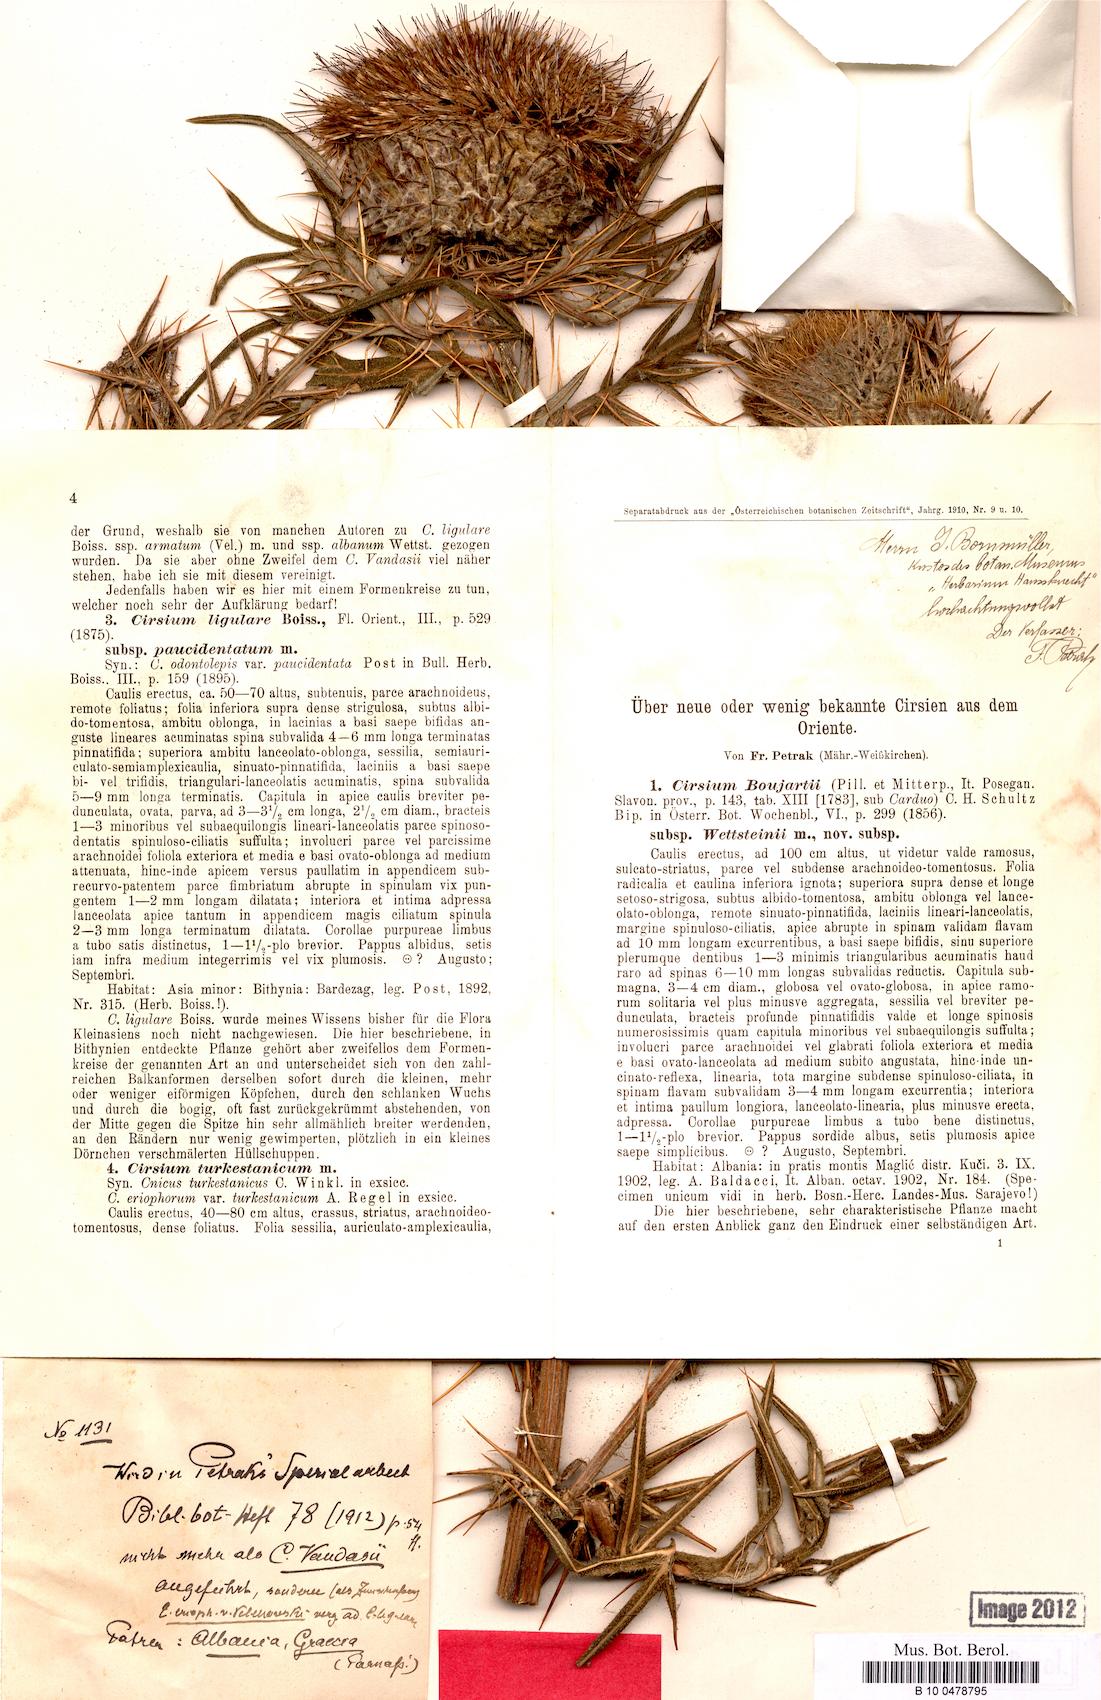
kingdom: Plantae
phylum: Tracheophyta
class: Magnoliopsida
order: Asterales
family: Asteraceae
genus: Lophiolepis
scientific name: Lophiolepis eriophora
